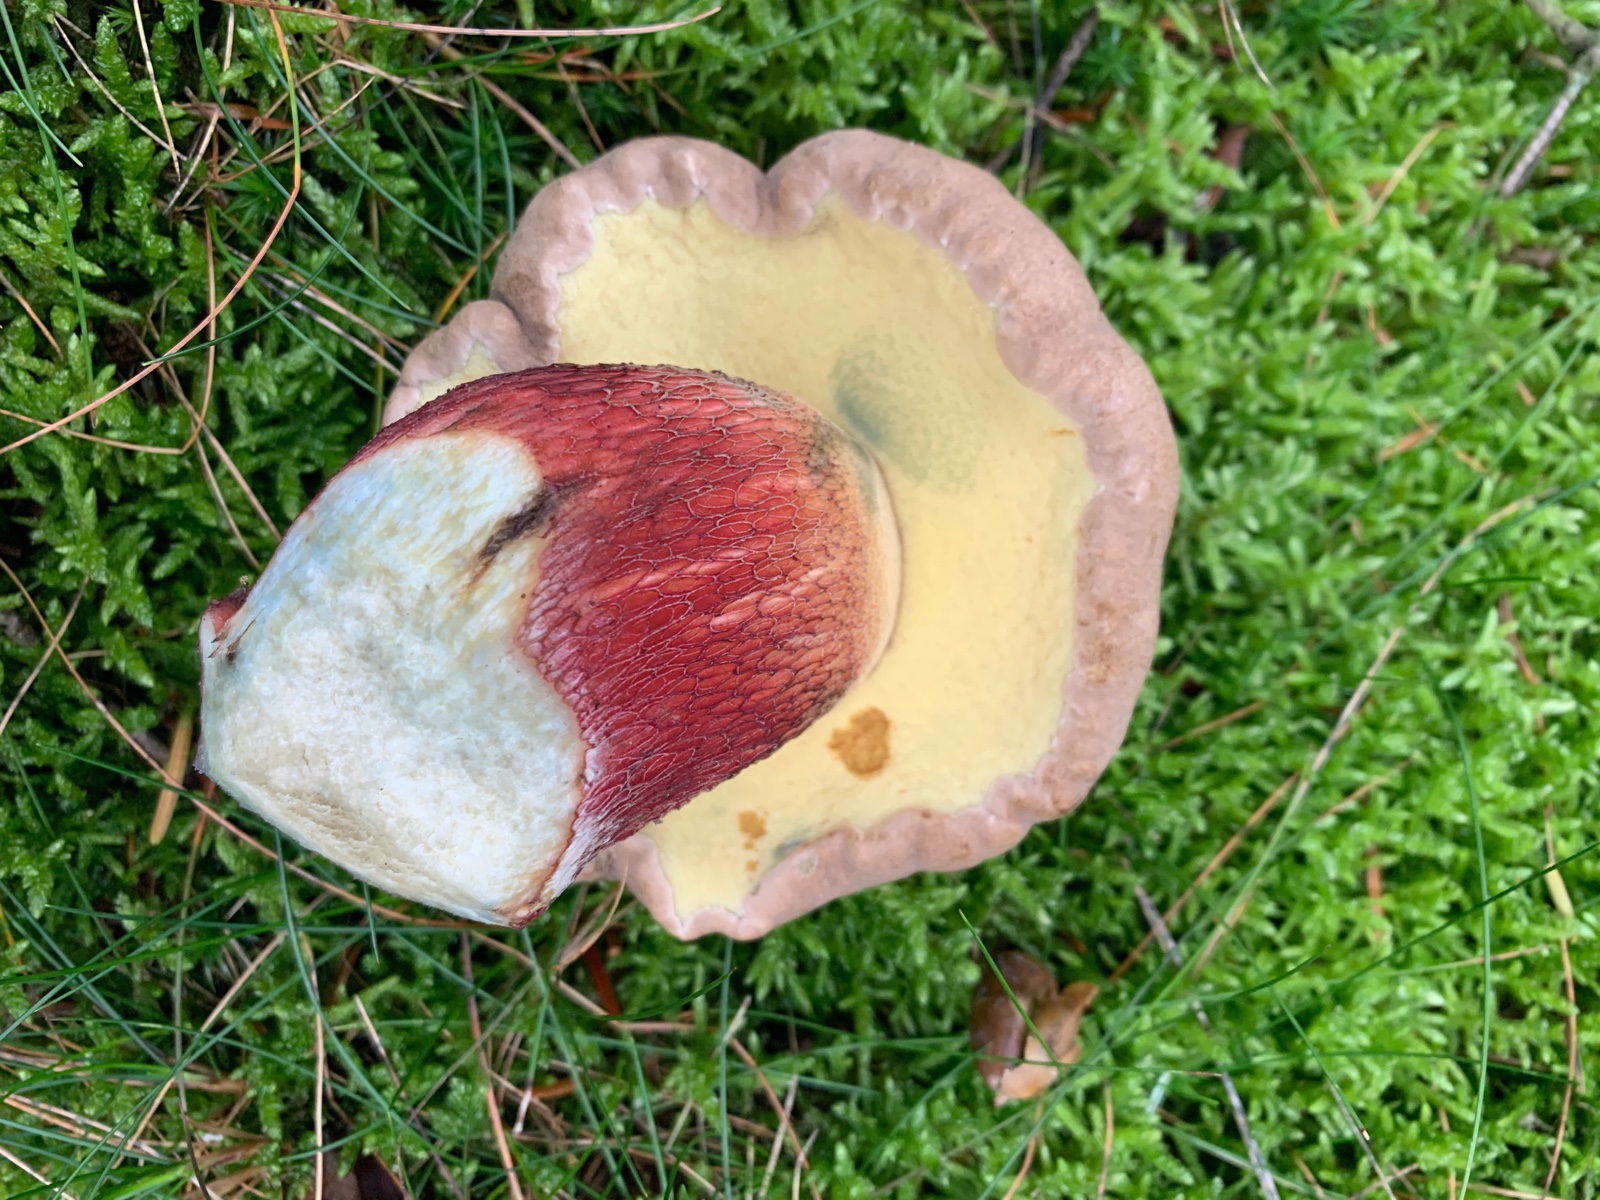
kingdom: Fungi
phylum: Basidiomycota
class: Agaricomycetes
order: Boletales
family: Boletaceae
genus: Caloboletus
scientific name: Caloboletus calopus
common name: skønfodet rørhat
